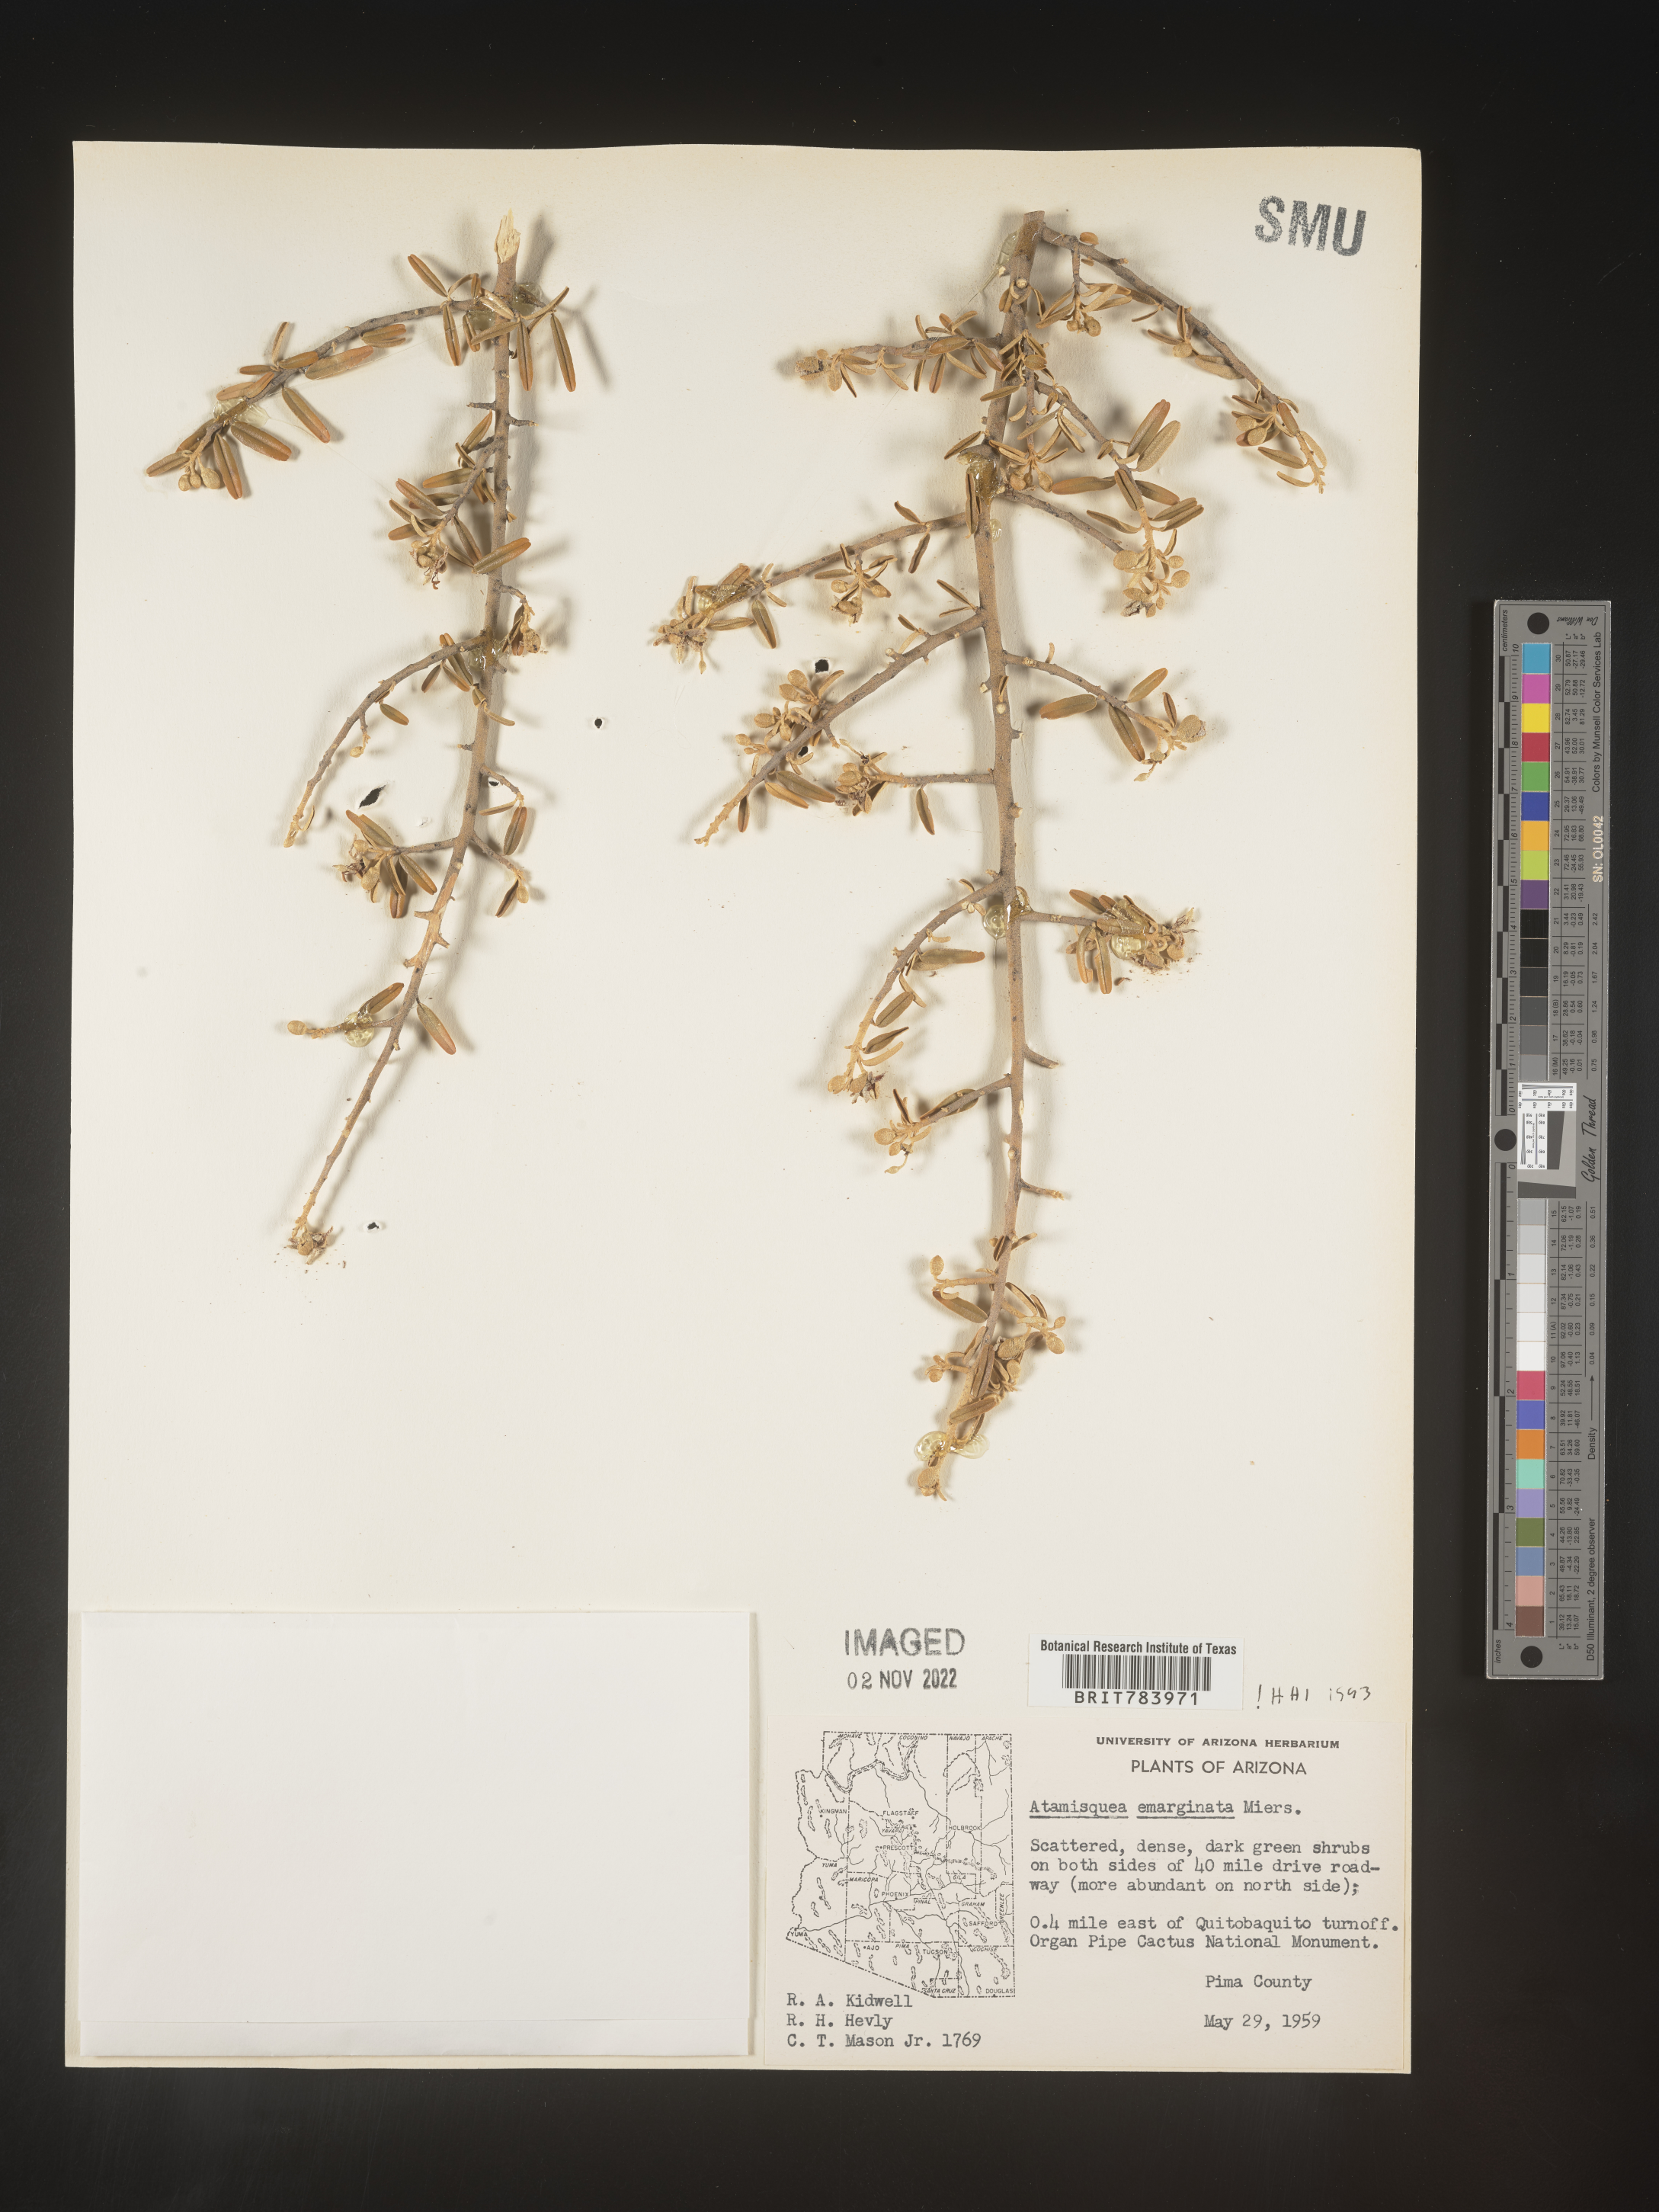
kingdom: Plantae
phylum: Tracheophyta
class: Magnoliopsida
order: Brassicales
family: Capparaceae
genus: Atamisquea
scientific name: Atamisquea
